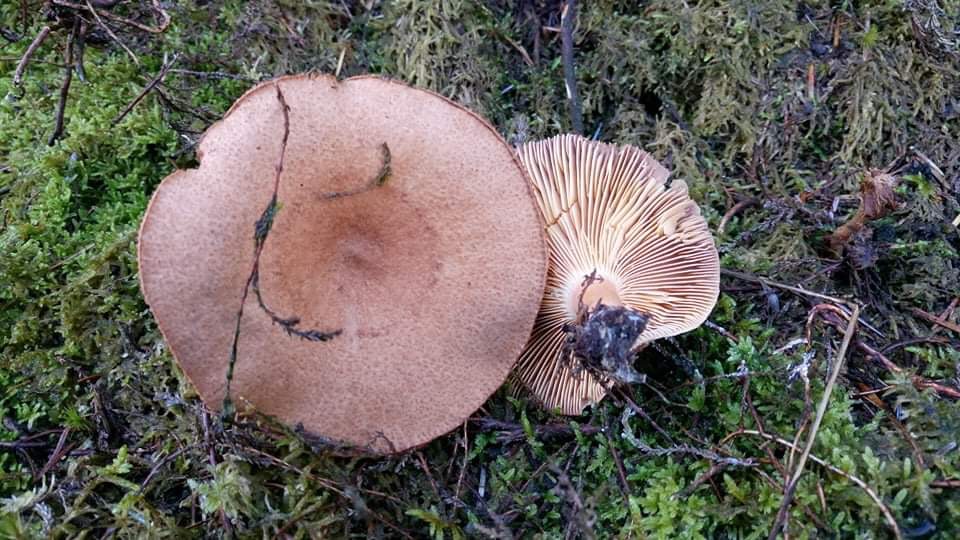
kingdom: Fungi
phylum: Basidiomycota
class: Agaricomycetes
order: Russulales
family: Russulaceae
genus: Lactarius
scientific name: Lactarius helvus
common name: mose-mælkehat
